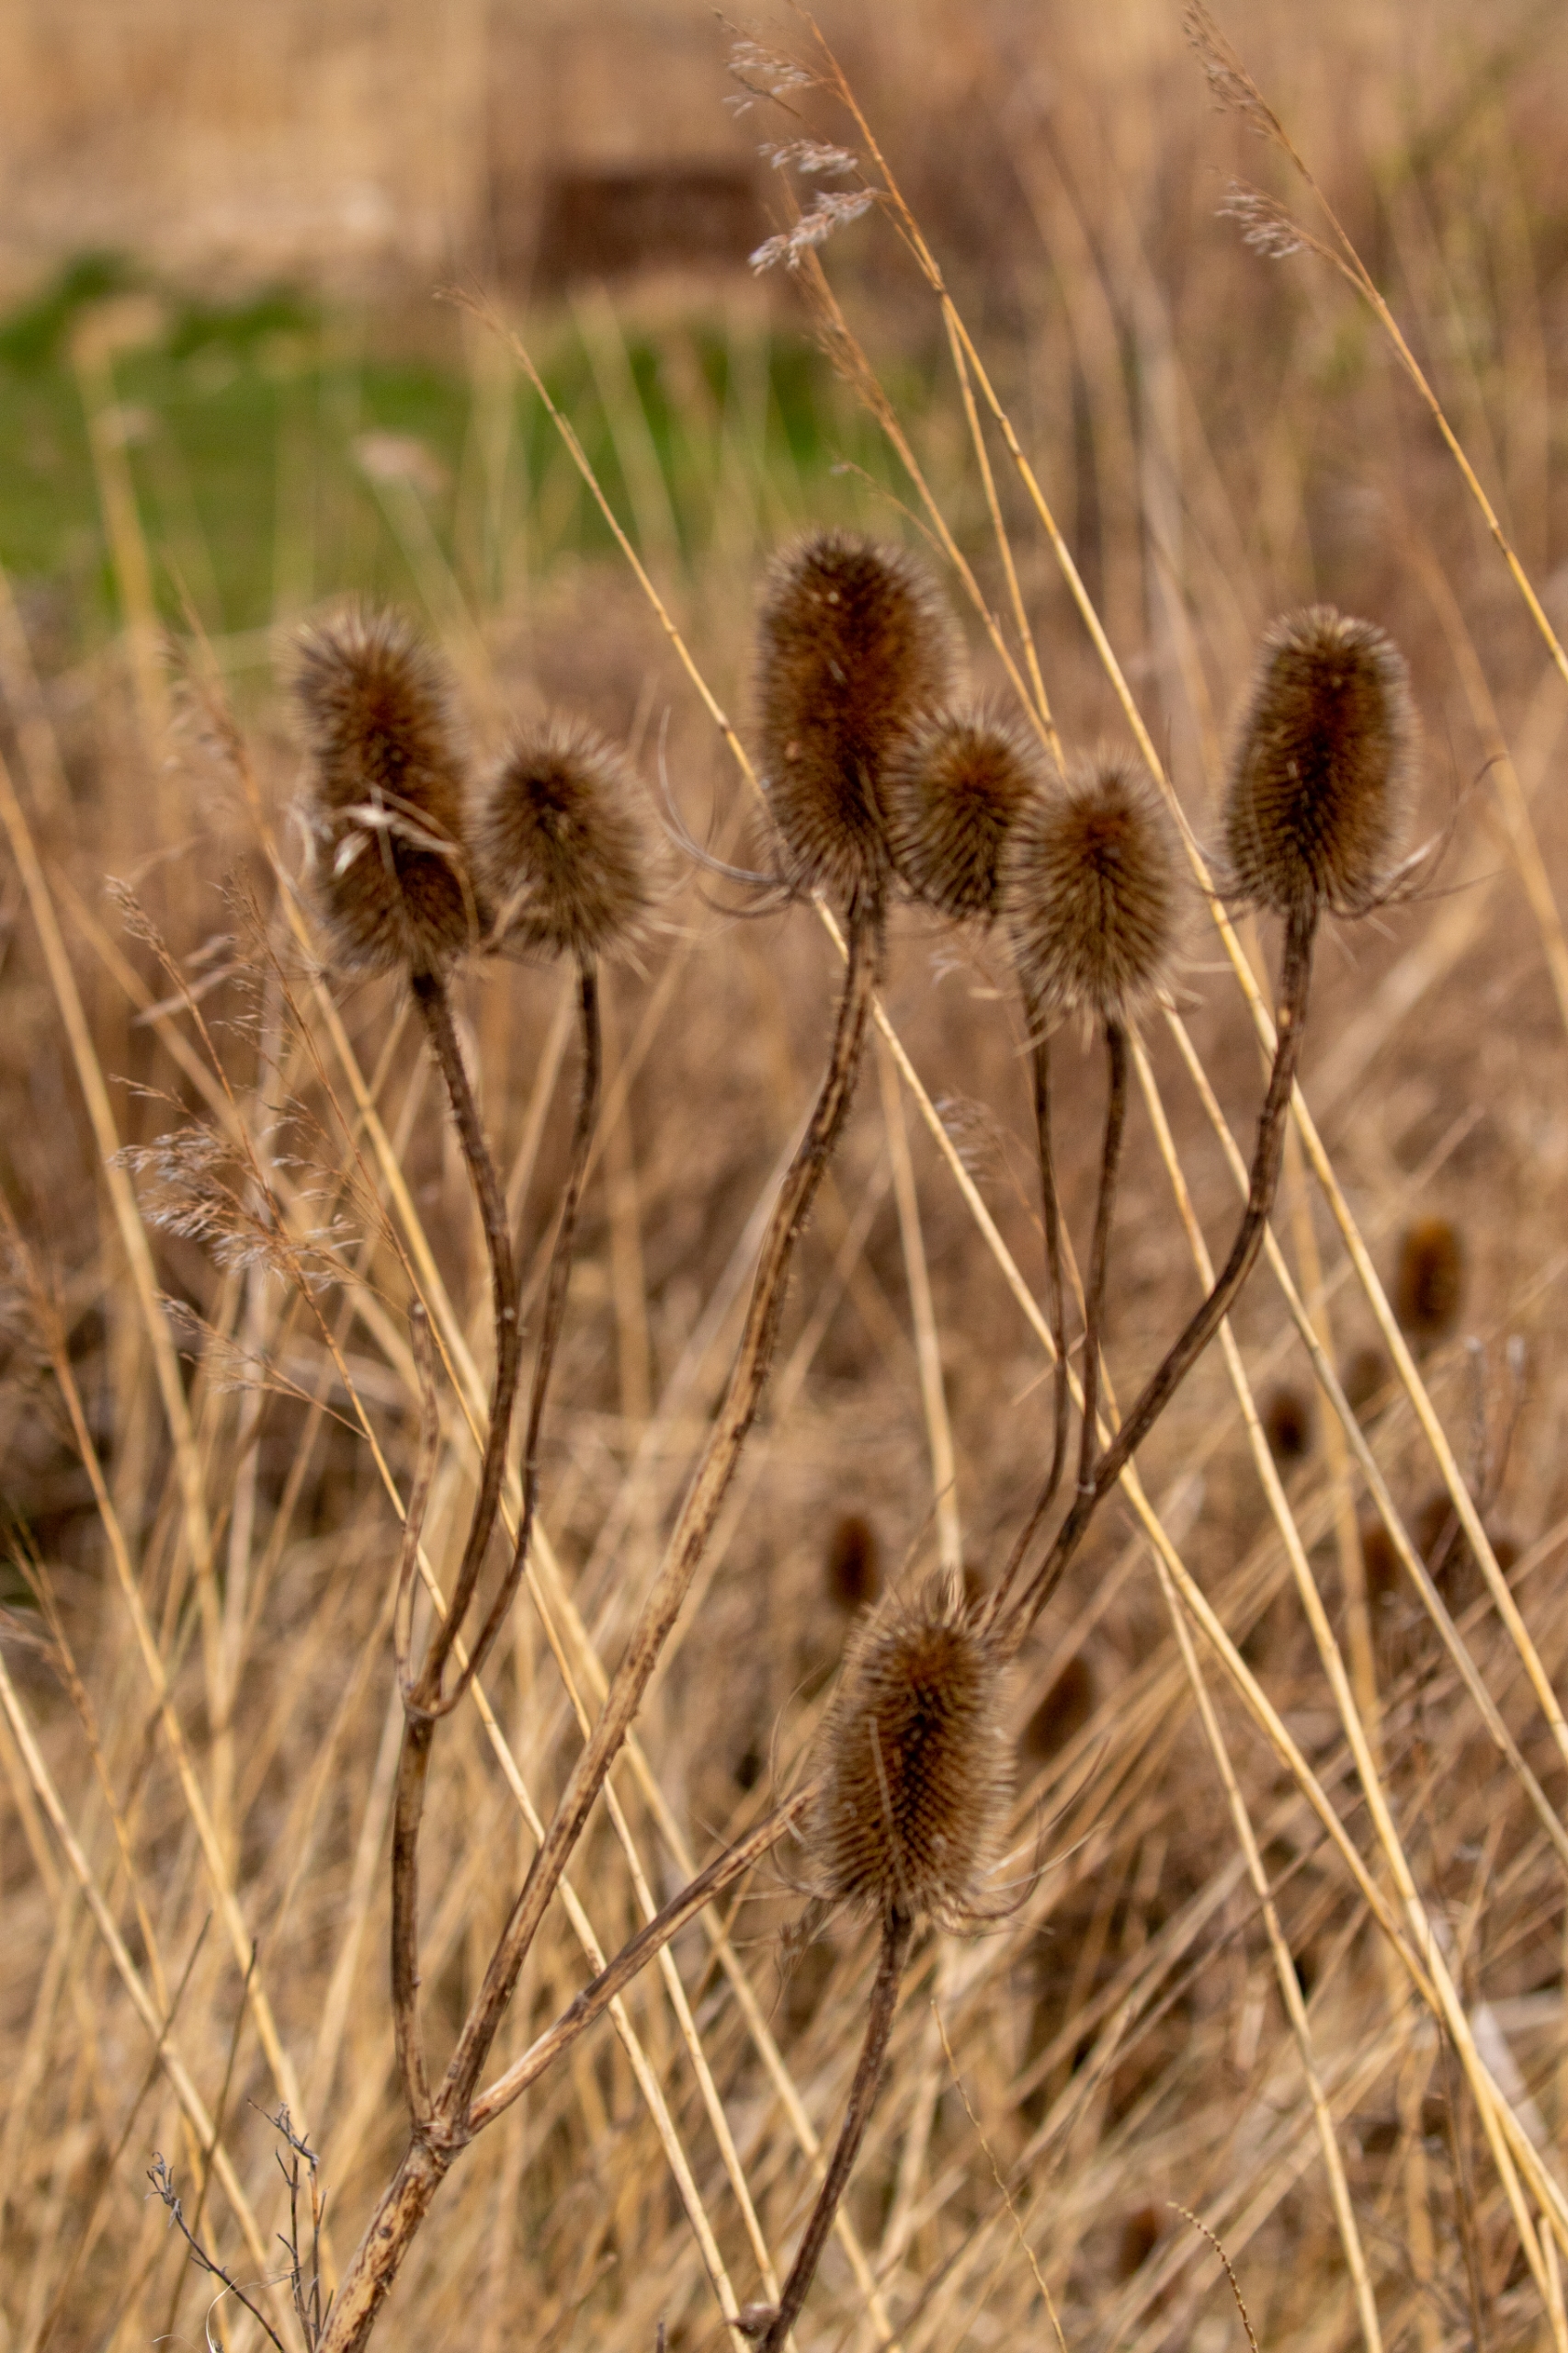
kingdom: Plantae
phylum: Tracheophyta
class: Magnoliopsida
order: Dipsacales
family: Caprifoliaceae
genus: Dipsacus
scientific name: Dipsacus fullonum
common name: Gærde-kartebolle
